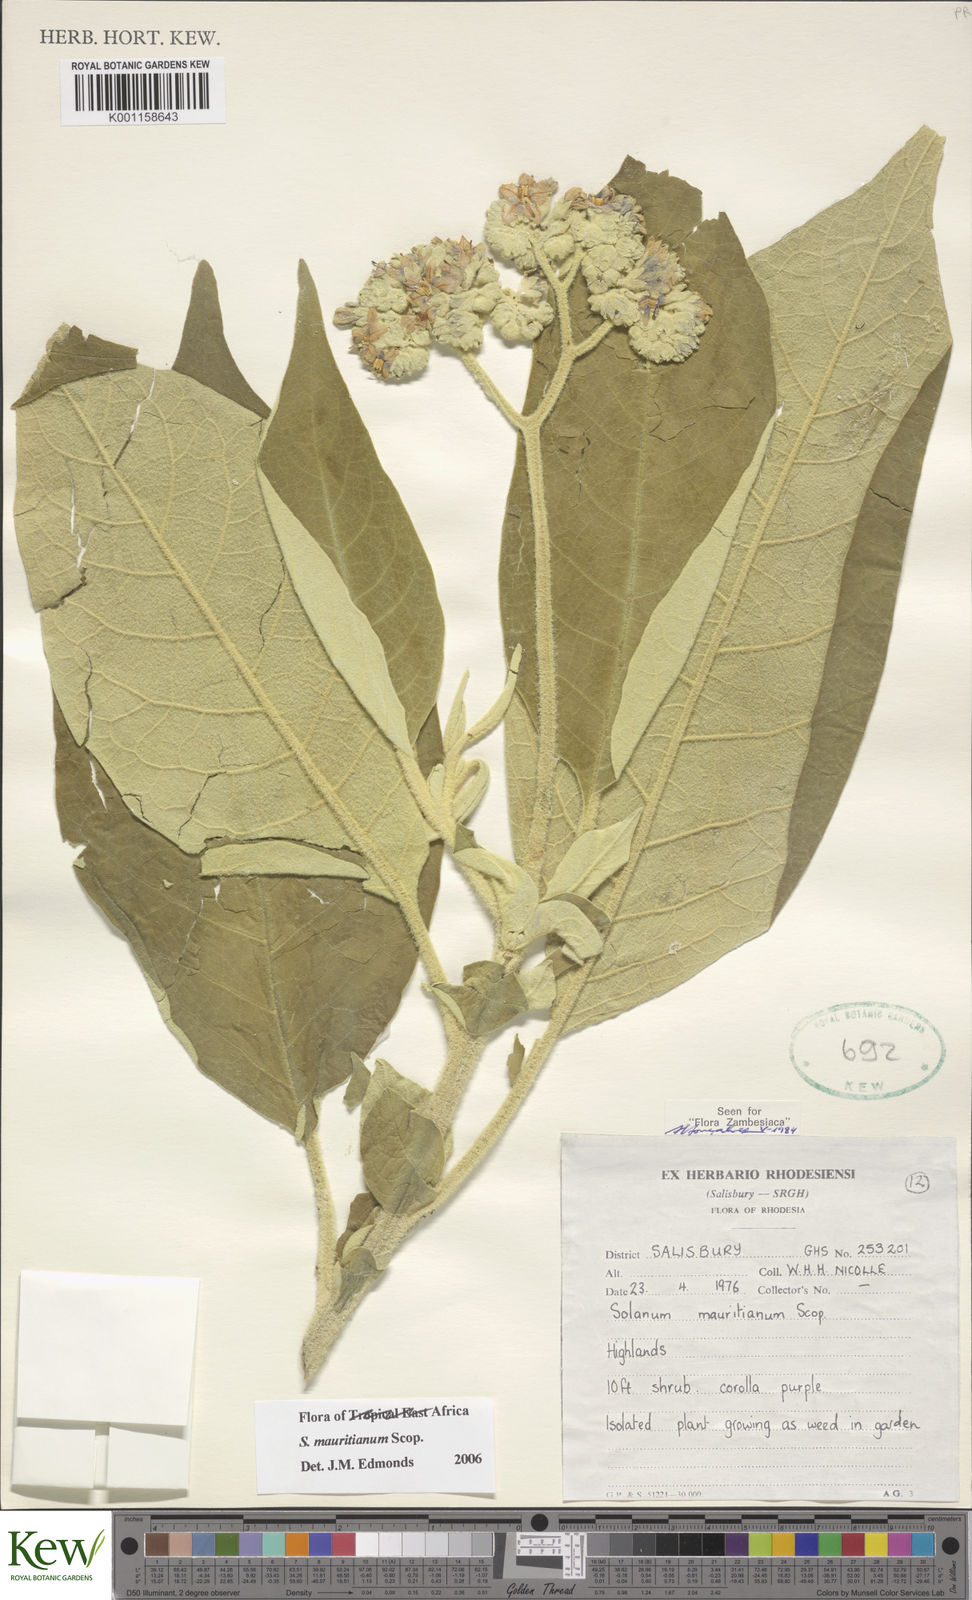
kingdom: Plantae
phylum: Tracheophyta
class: Magnoliopsida
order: Solanales
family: Solanaceae
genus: Solanum
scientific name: Solanum mauritianum
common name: Earleaf nightshade
